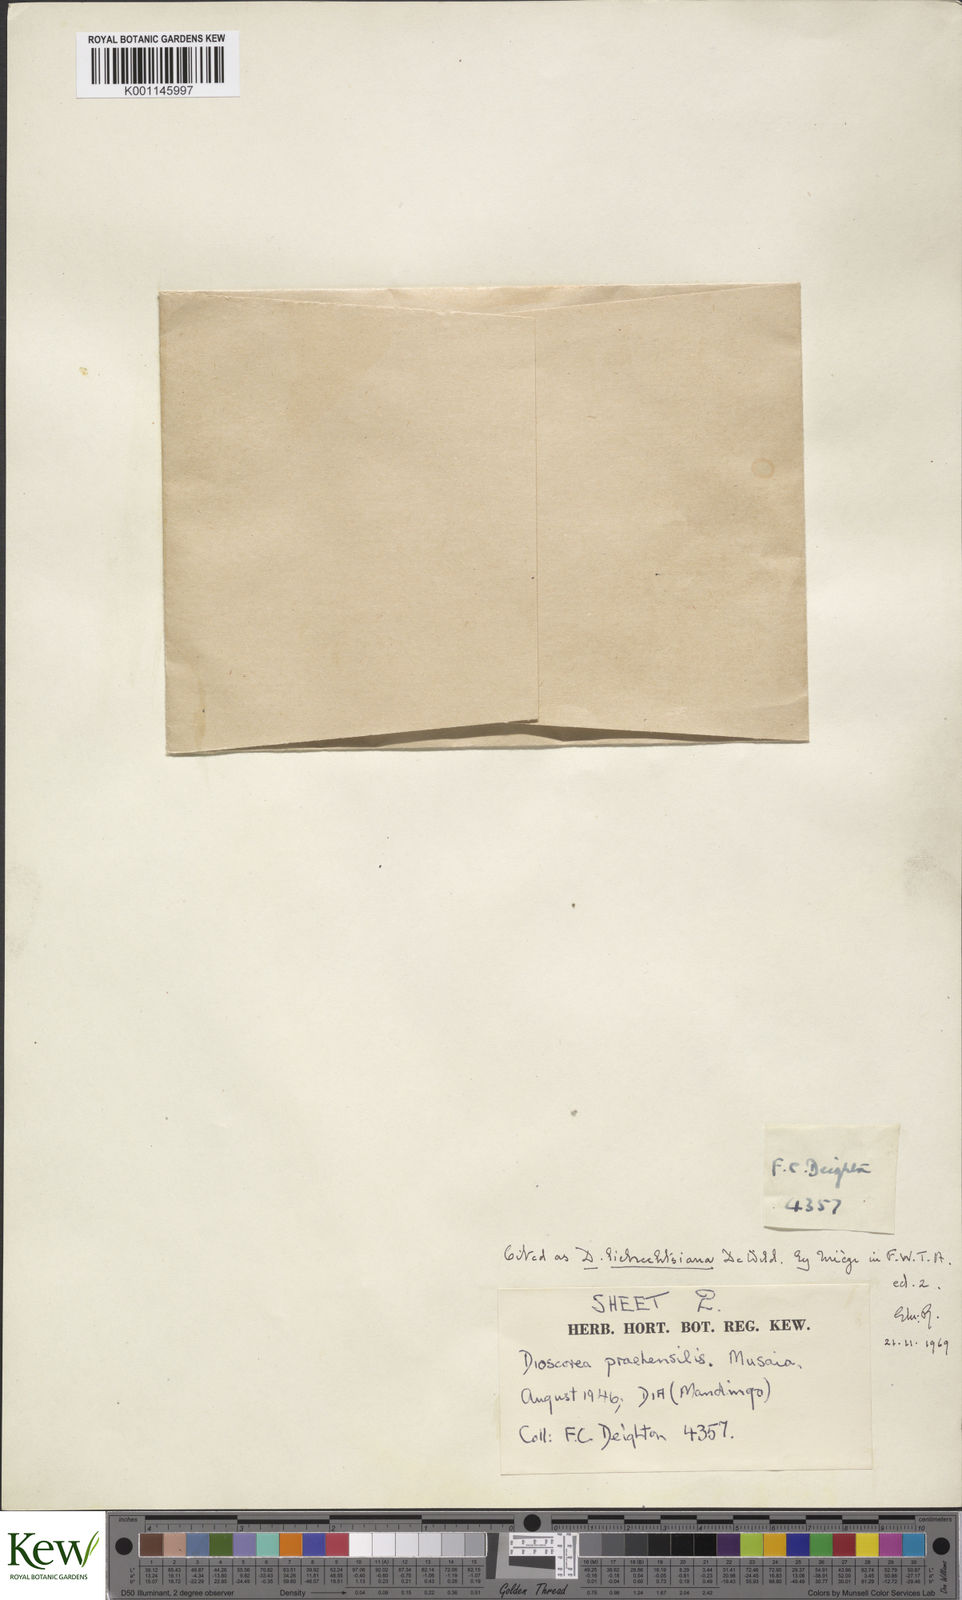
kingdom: Plantae
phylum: Tracheophyta
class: Liliopsida
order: Dioscoreales
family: Dioscoreaceae
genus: Dioscorea
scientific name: Dioscorea praehensilis
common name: Bush yam
